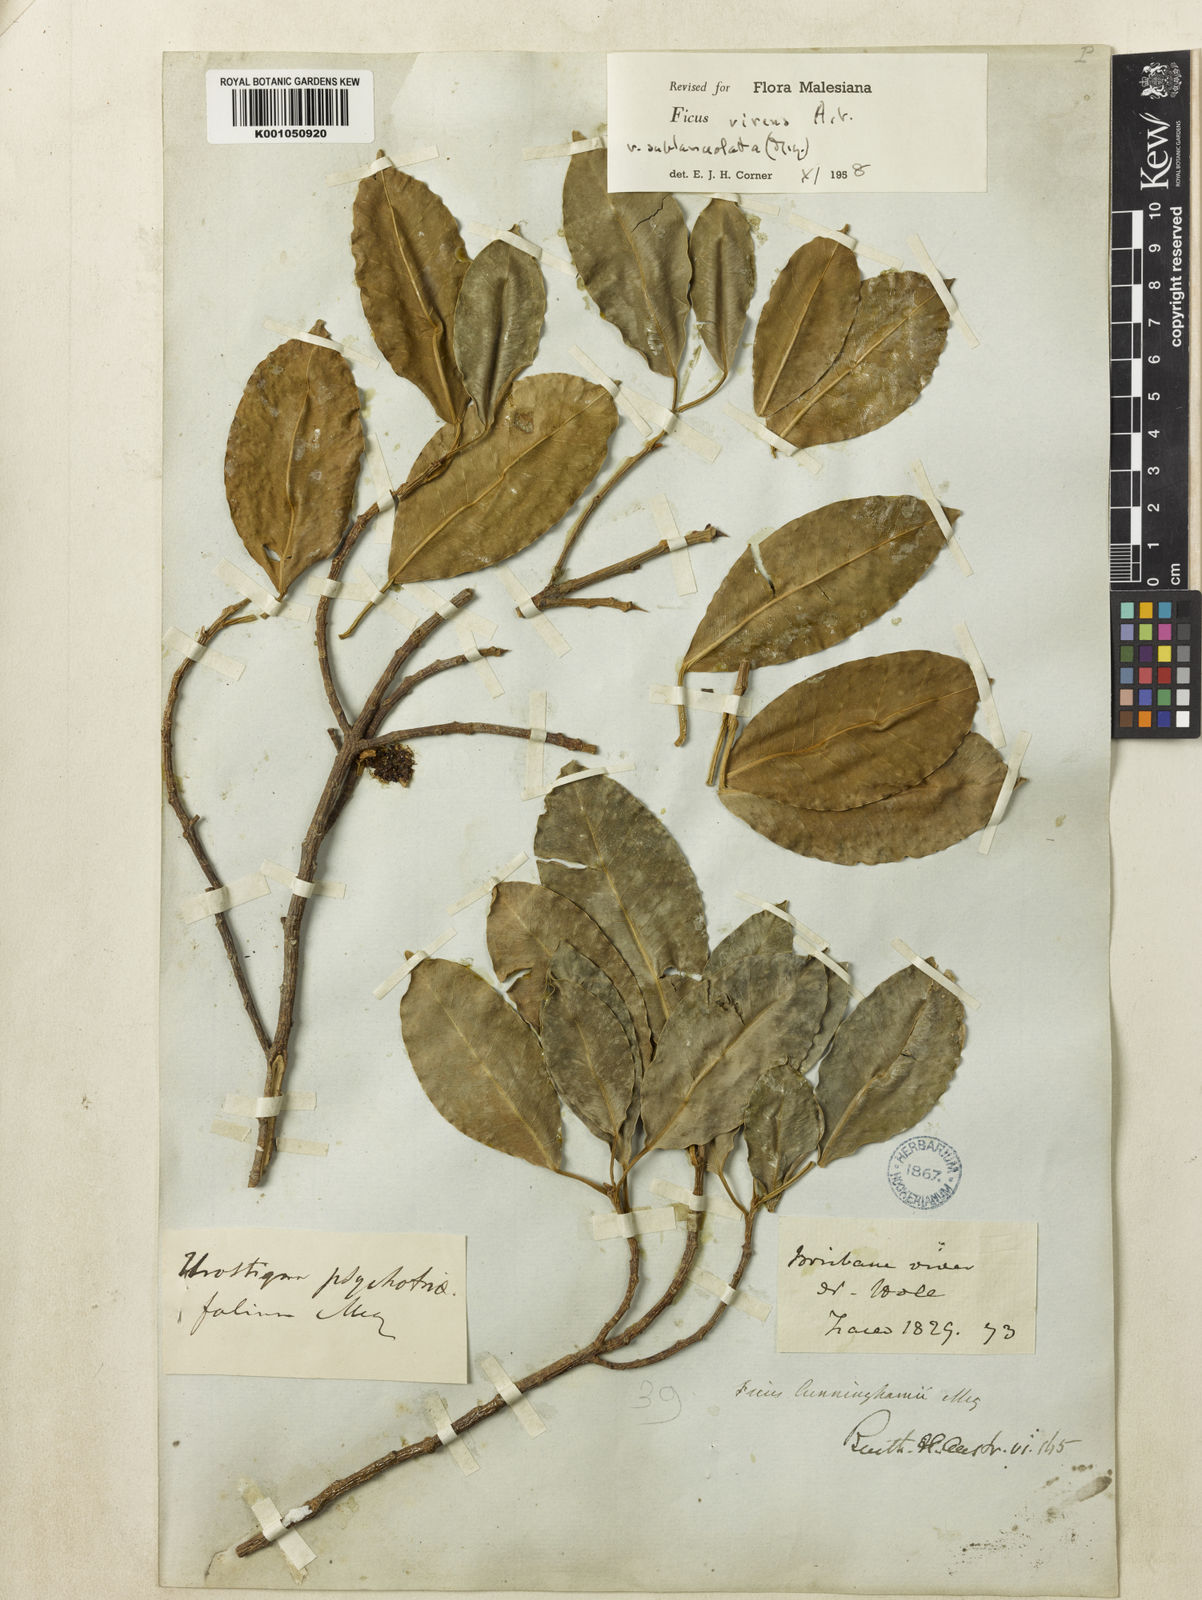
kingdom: Plantae
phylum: Tracheophyta
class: Magnoliopsida
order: Rosales
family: Moraceae
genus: Ficus
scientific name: Ficus virens
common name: Spotted fig
